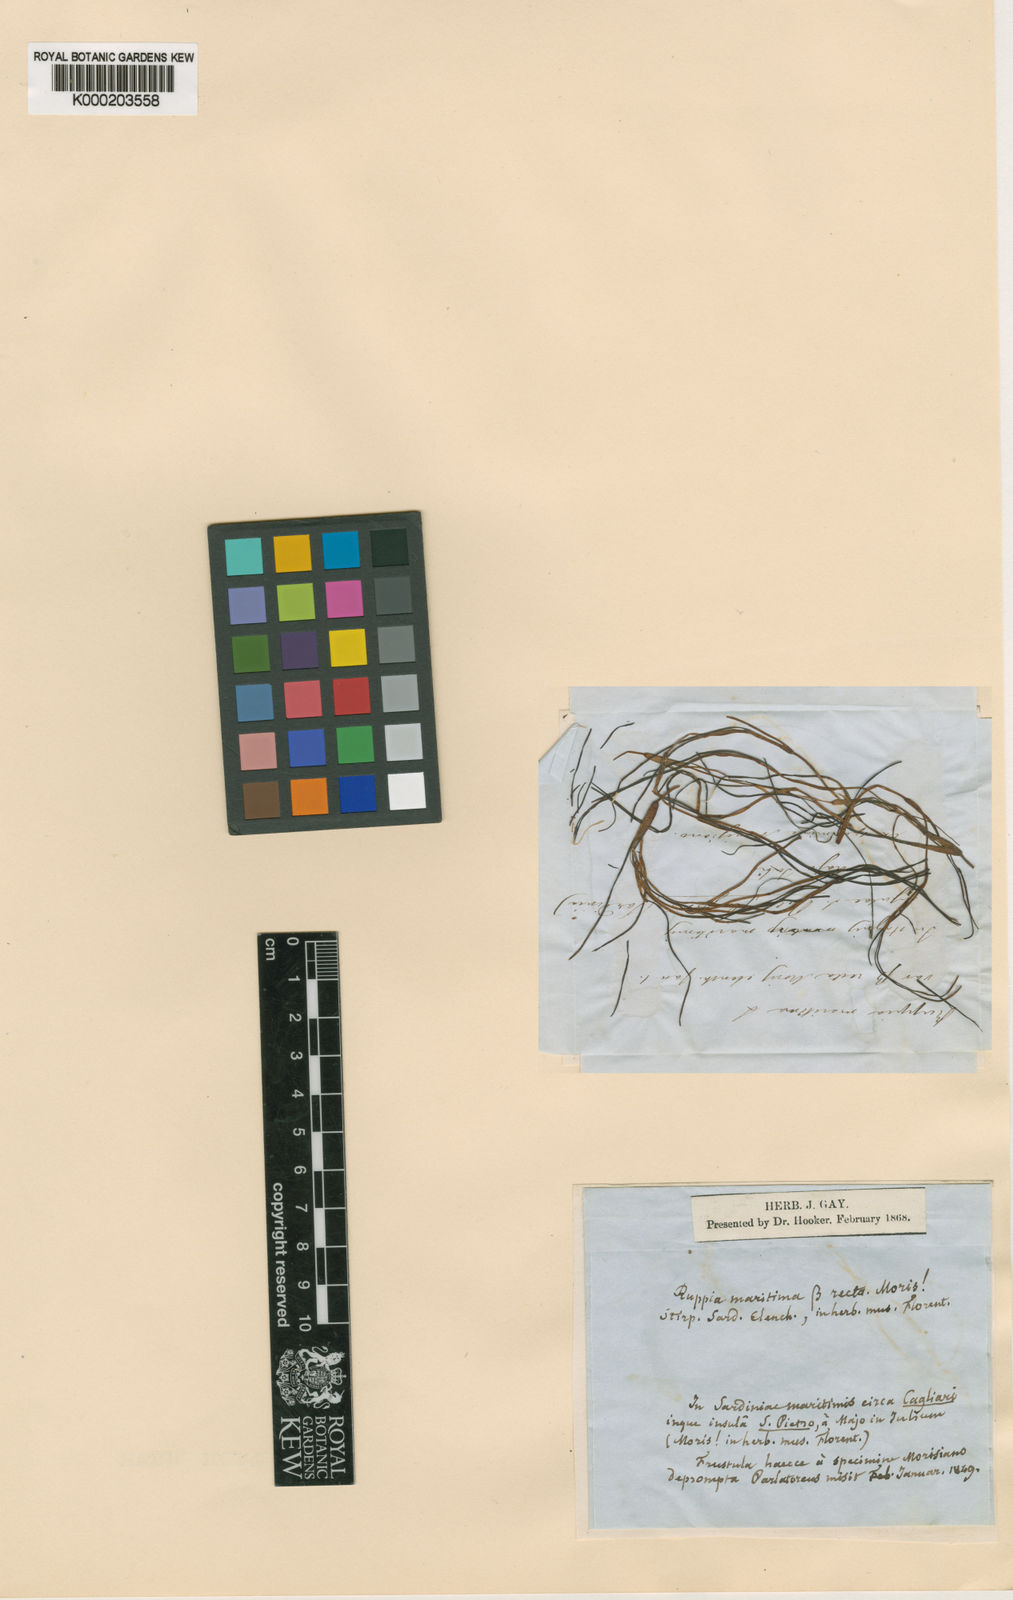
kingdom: Plantae
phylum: Tracheophyta
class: Liliopsida
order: Alismatales
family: Ruppiaceae
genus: Ruppia
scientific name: Ruppia maritima
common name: Beaked tasselweed
